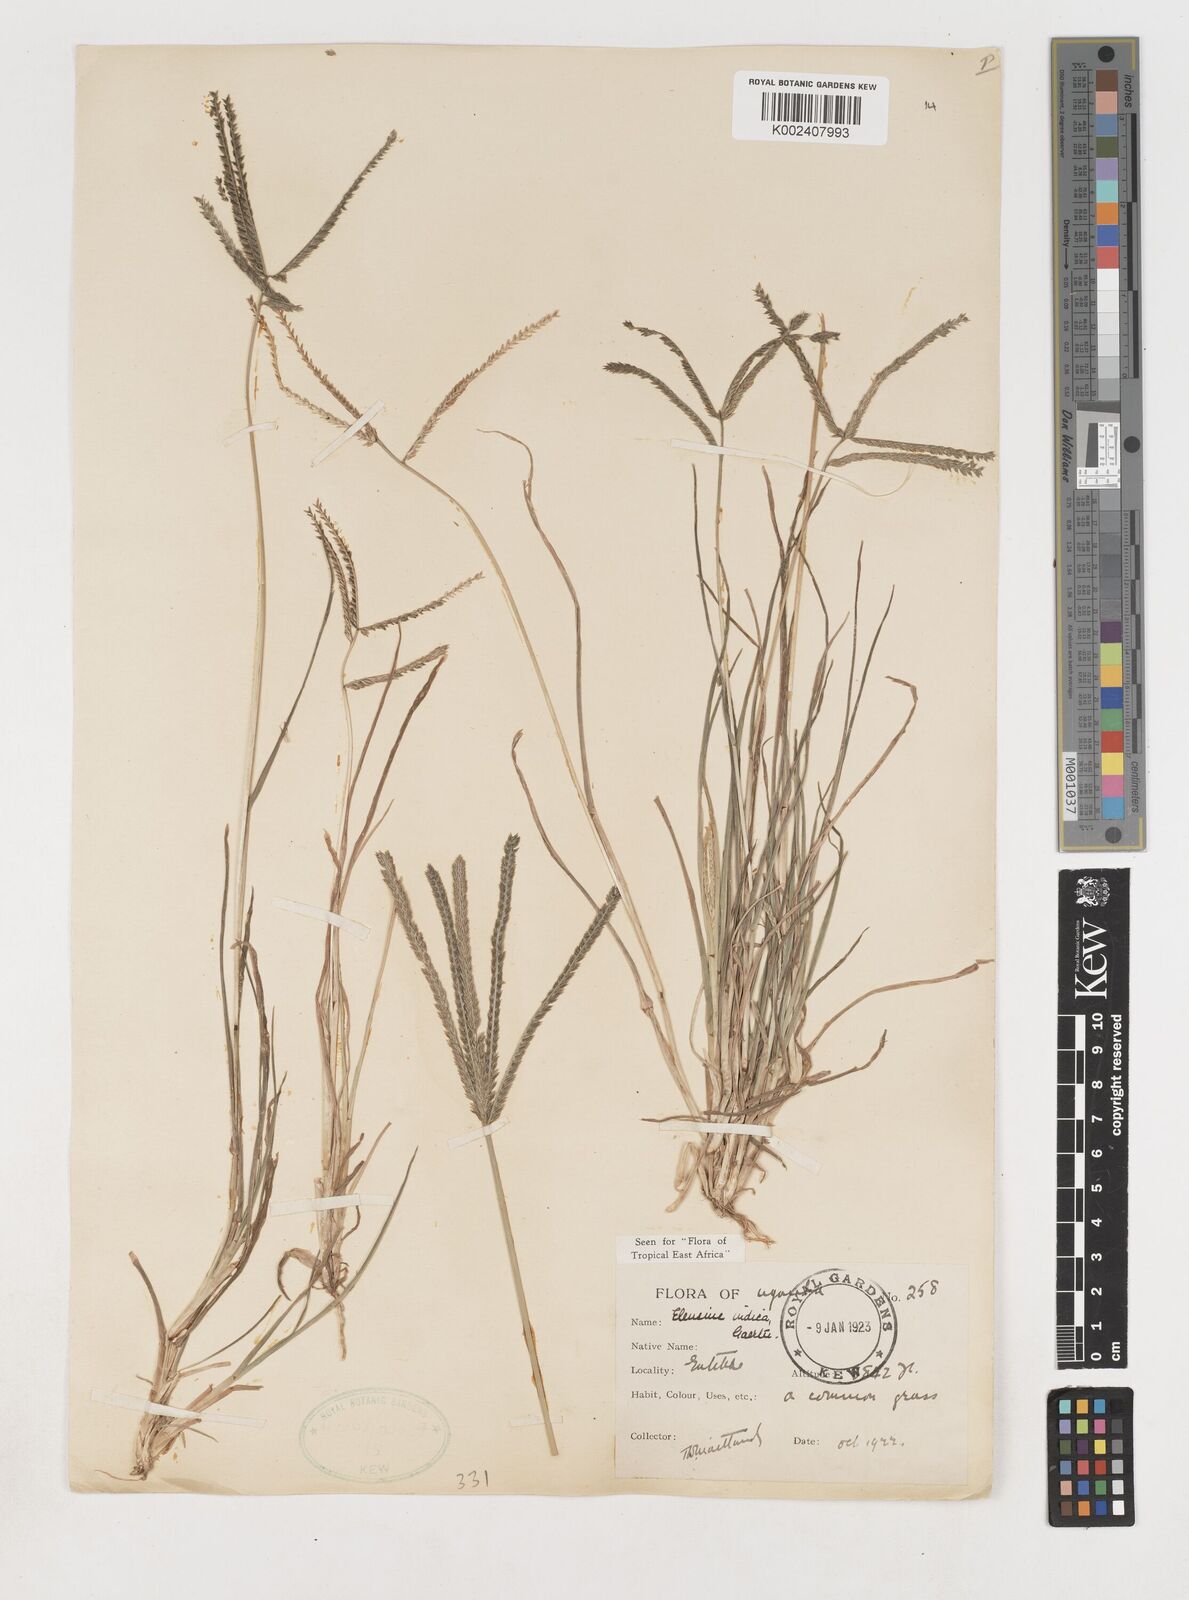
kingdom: Plantae
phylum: Tracheophyta
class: Liliopsida
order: Poales
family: Poaceae
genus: Eleusine
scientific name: Eleusine indica
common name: Yard-grass
